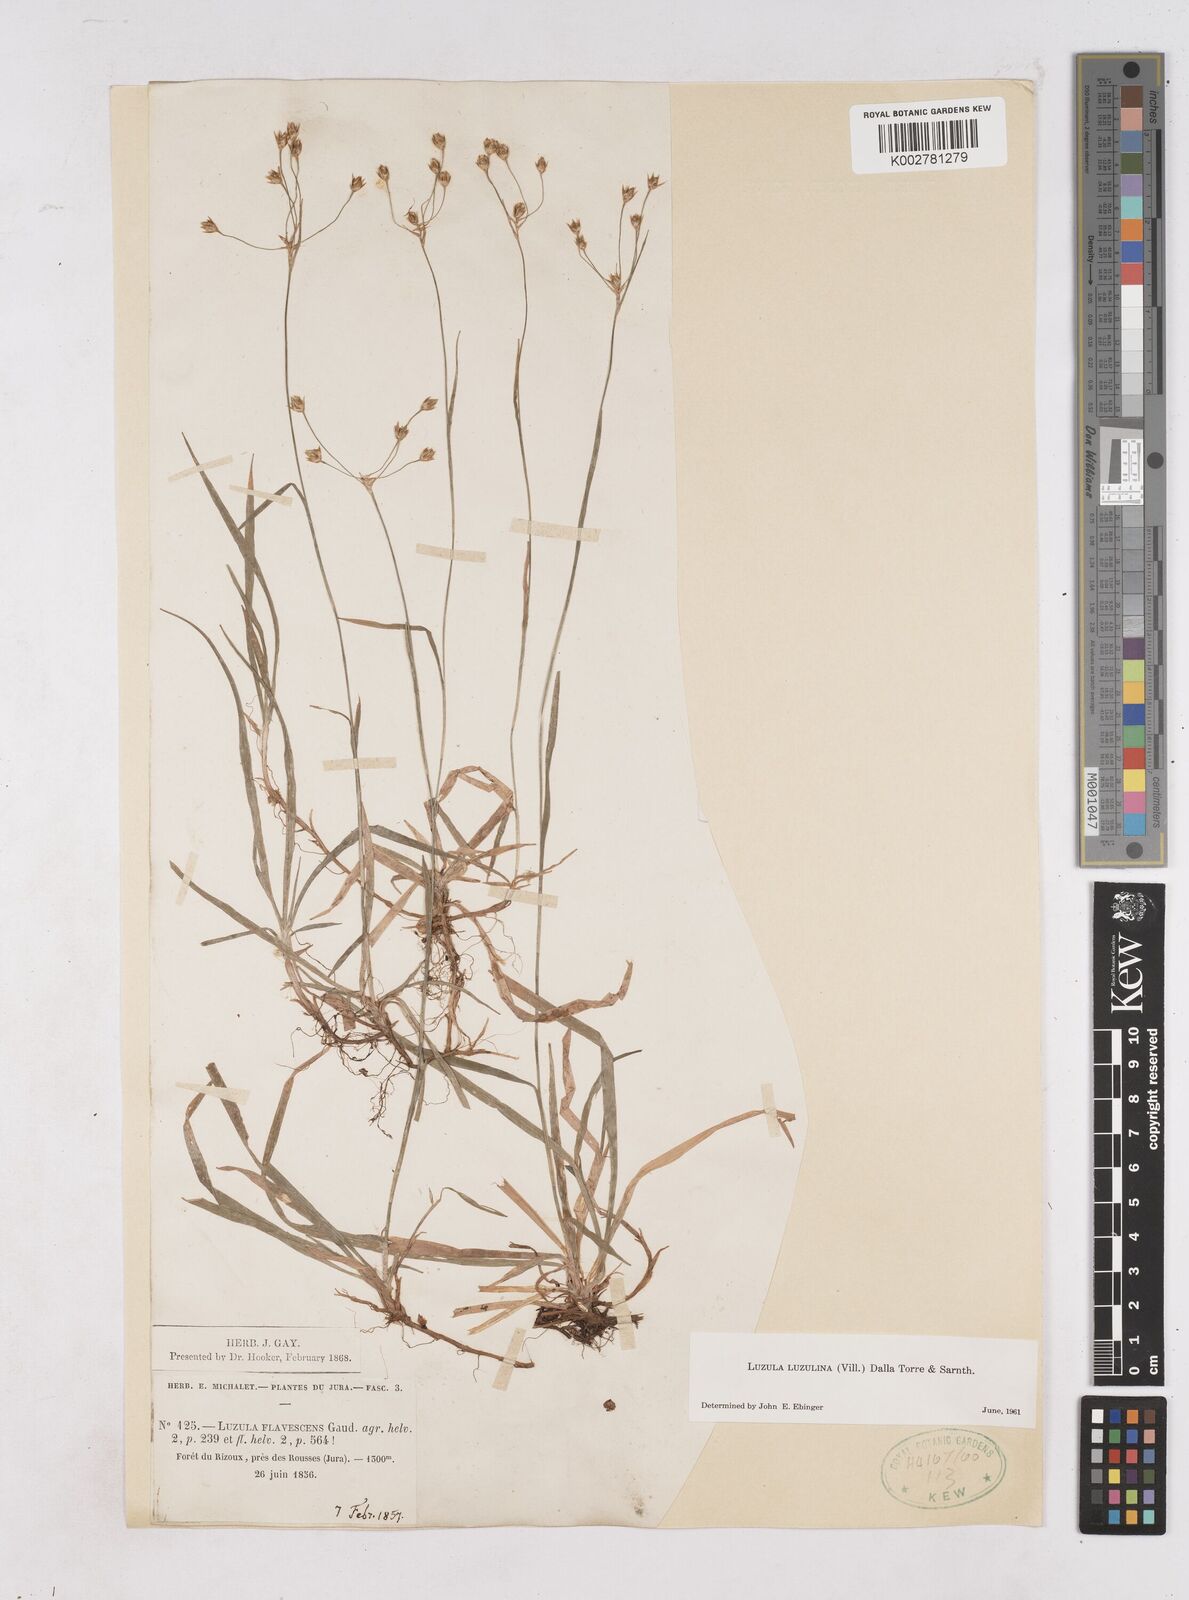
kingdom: Plantae
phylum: Tracheophyta
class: Liliopsida
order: Poales
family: Juncaceae
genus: Luzula
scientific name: Luzula luzulina
